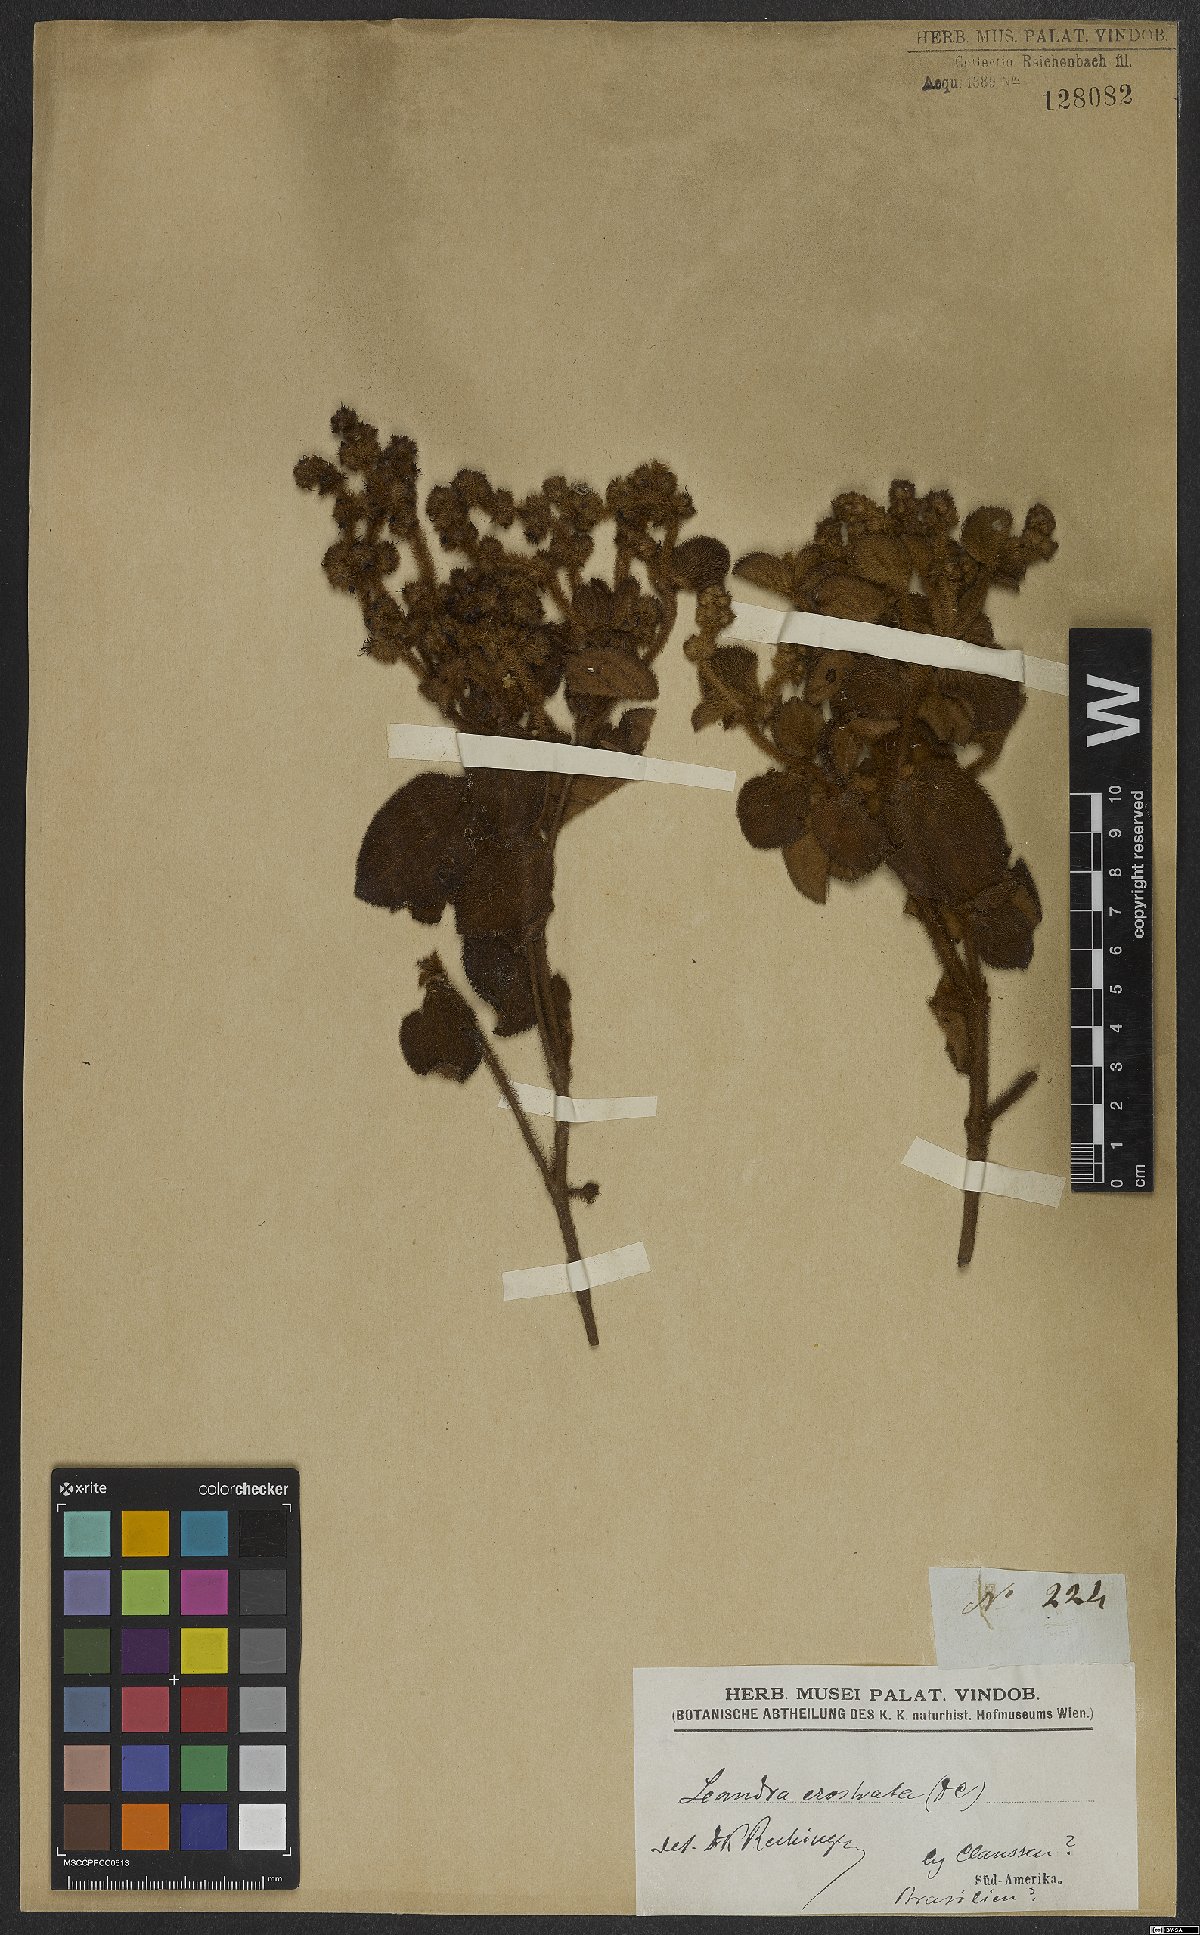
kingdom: Plantae
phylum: Tracheophyta
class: Magnoliopsida
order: Myrtales
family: Melastomataceae
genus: Miconia
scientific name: Miconia erostrata
